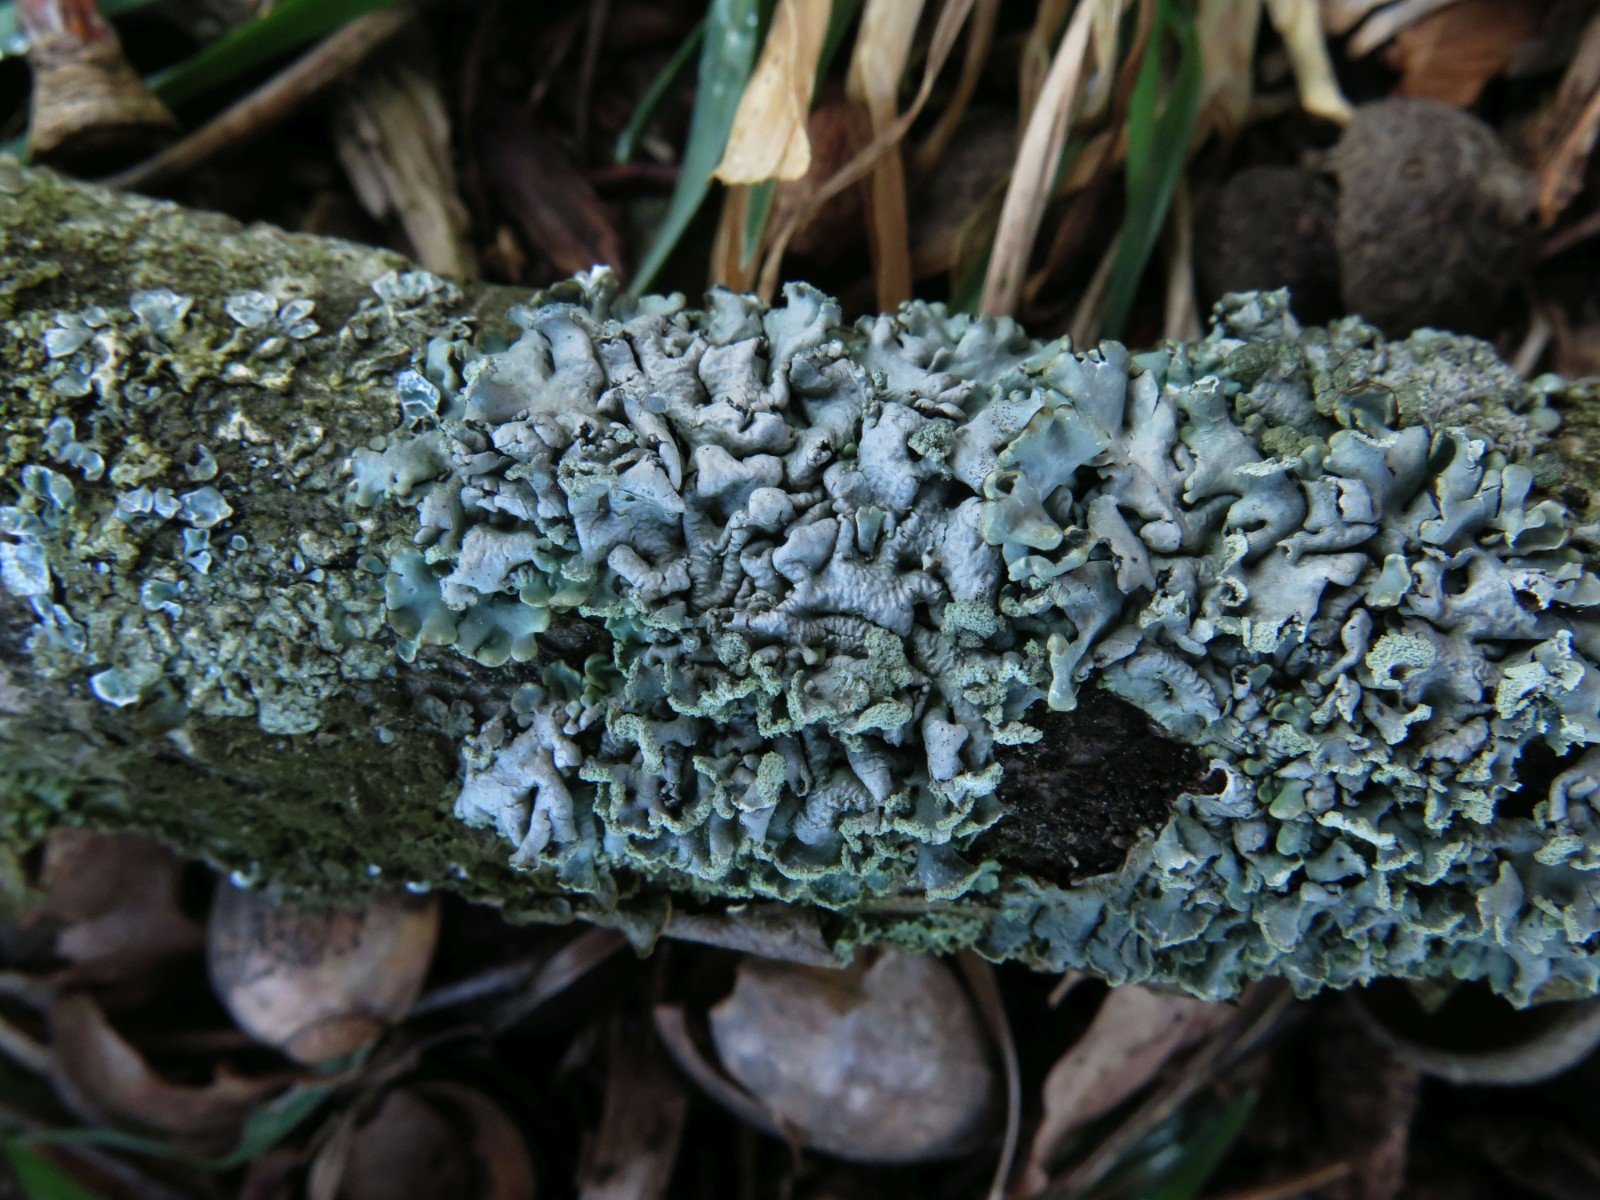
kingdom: Fungi
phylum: Ascomycota
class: Lecanoromycetes
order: Lecanorales
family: Parmeliaceae
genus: Hypogymnia
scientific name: Hypogymnia physodes
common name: almindelig kvistlav
